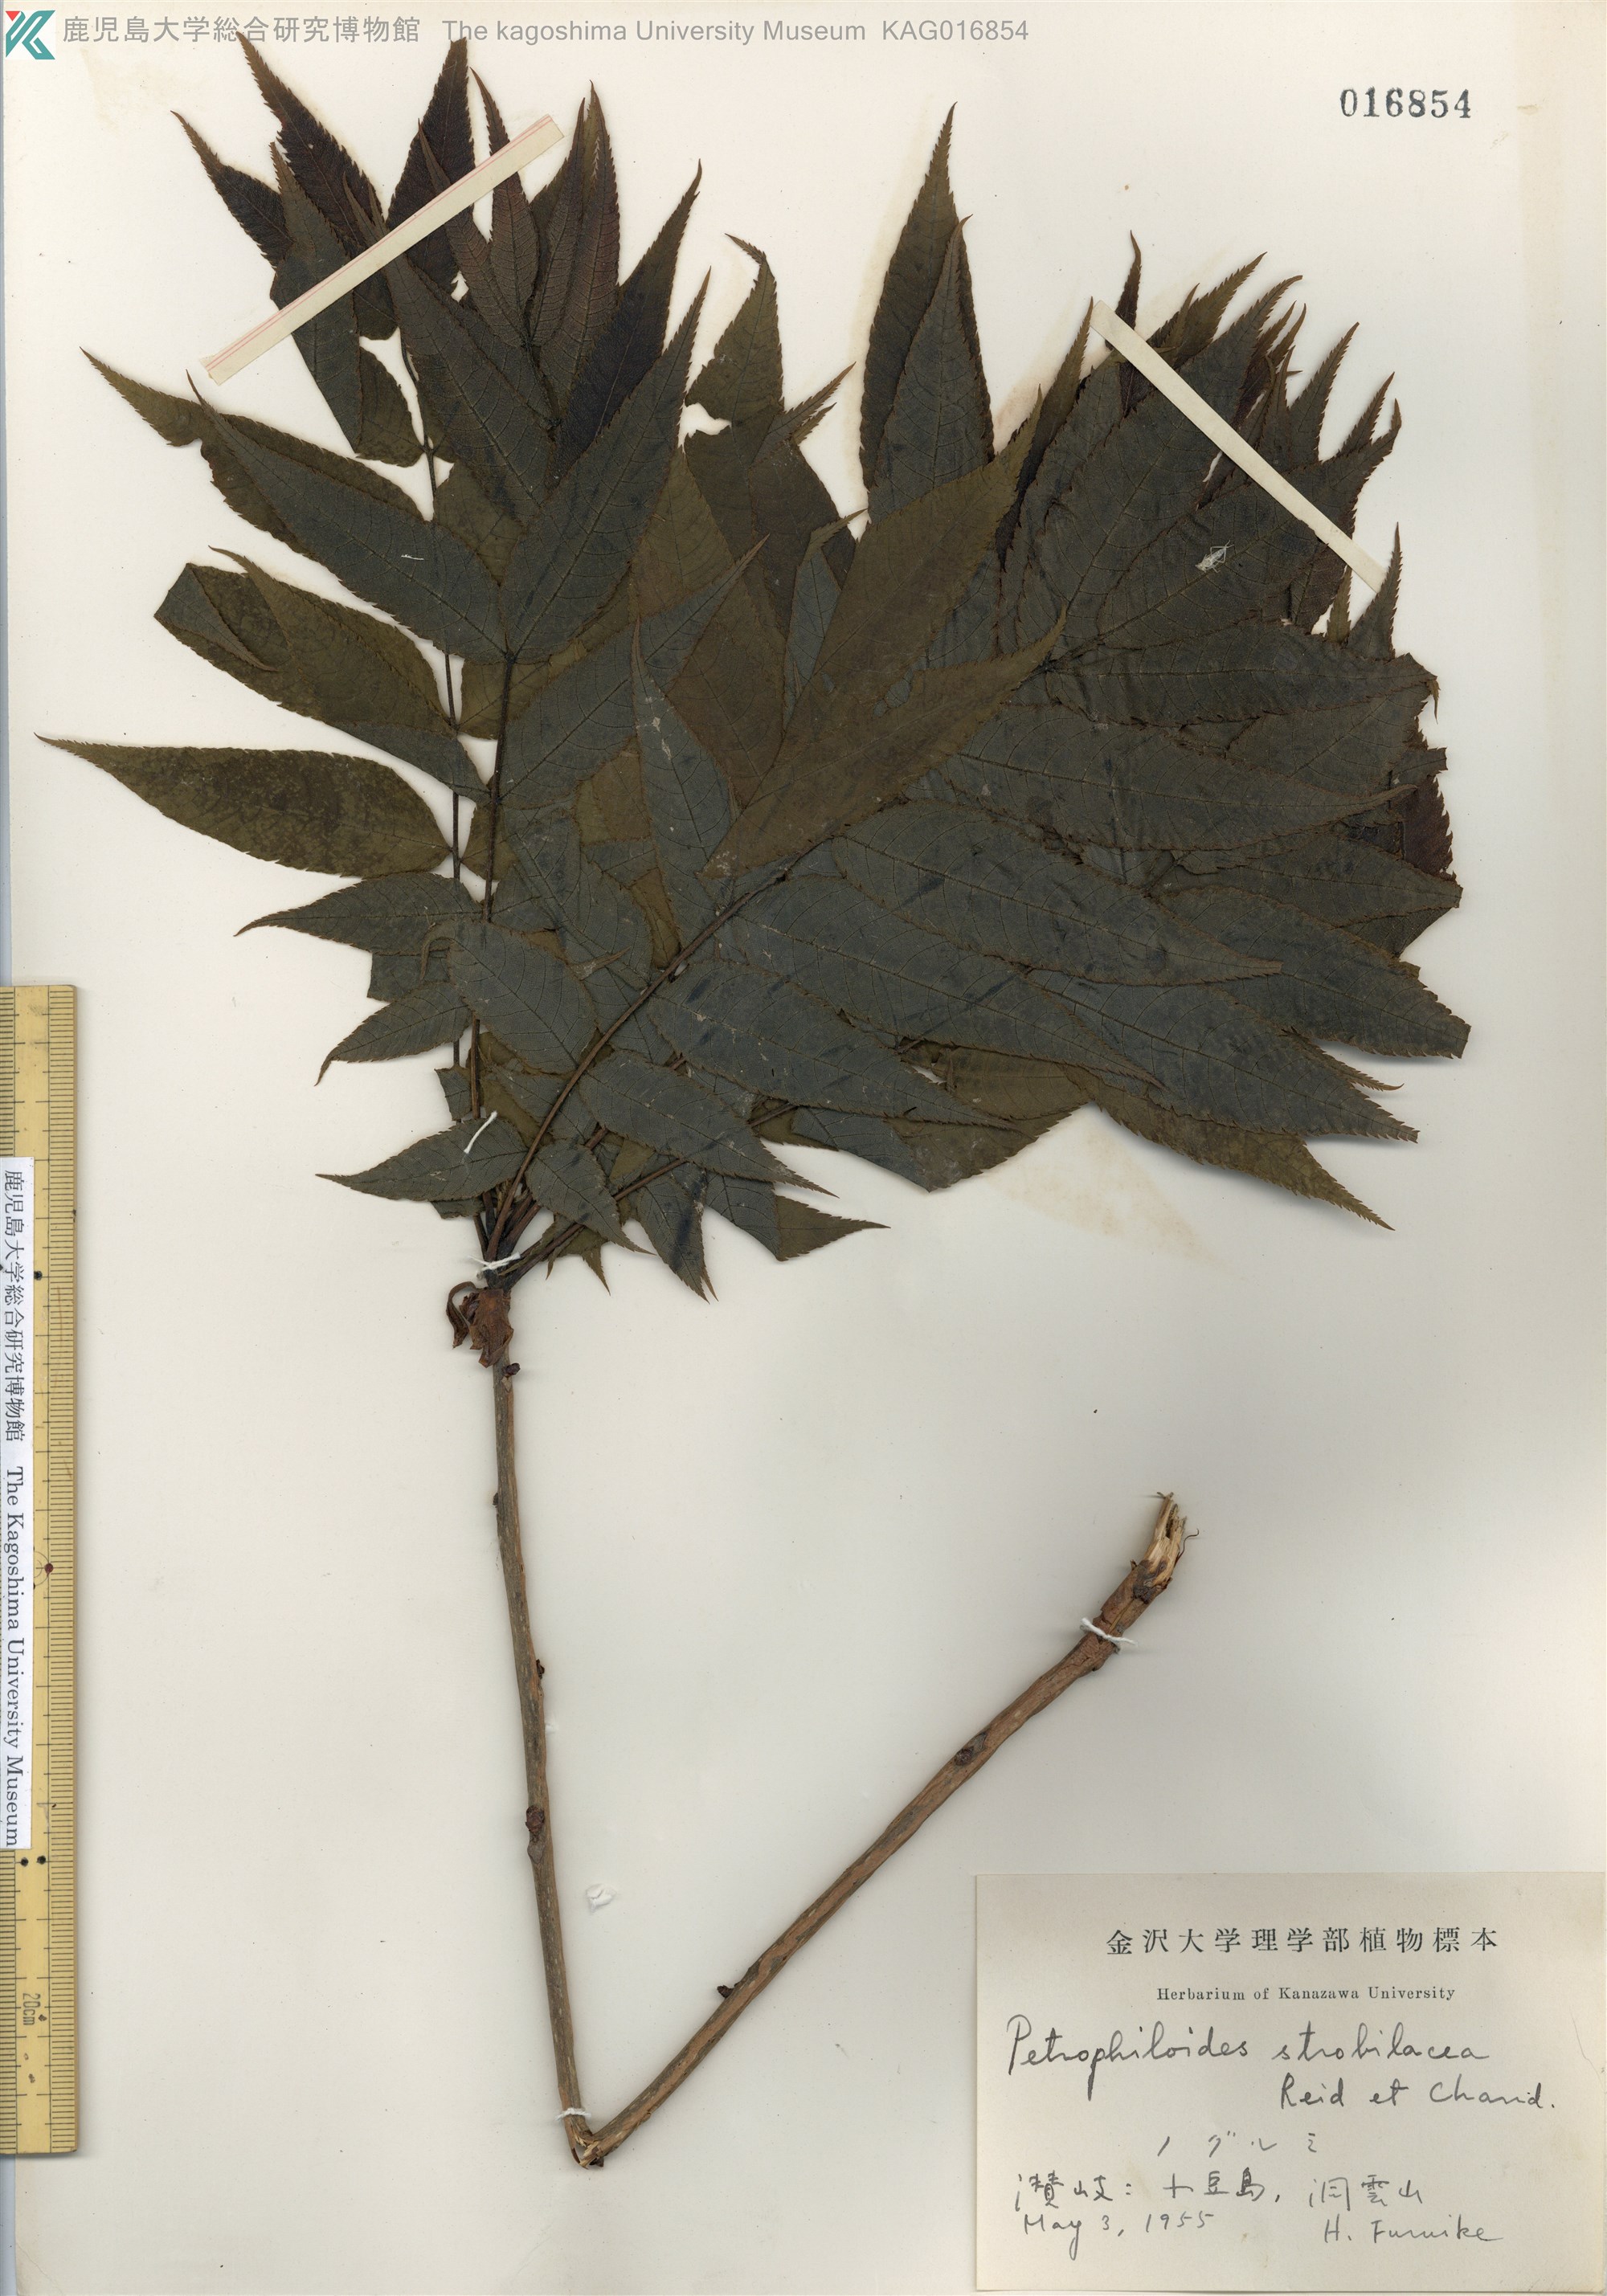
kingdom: Plantae
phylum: Tracheophyta
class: Magnoliopsida
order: Fagales
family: Juglandaceae
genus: Platycarya
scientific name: Platycarya strobilacea
